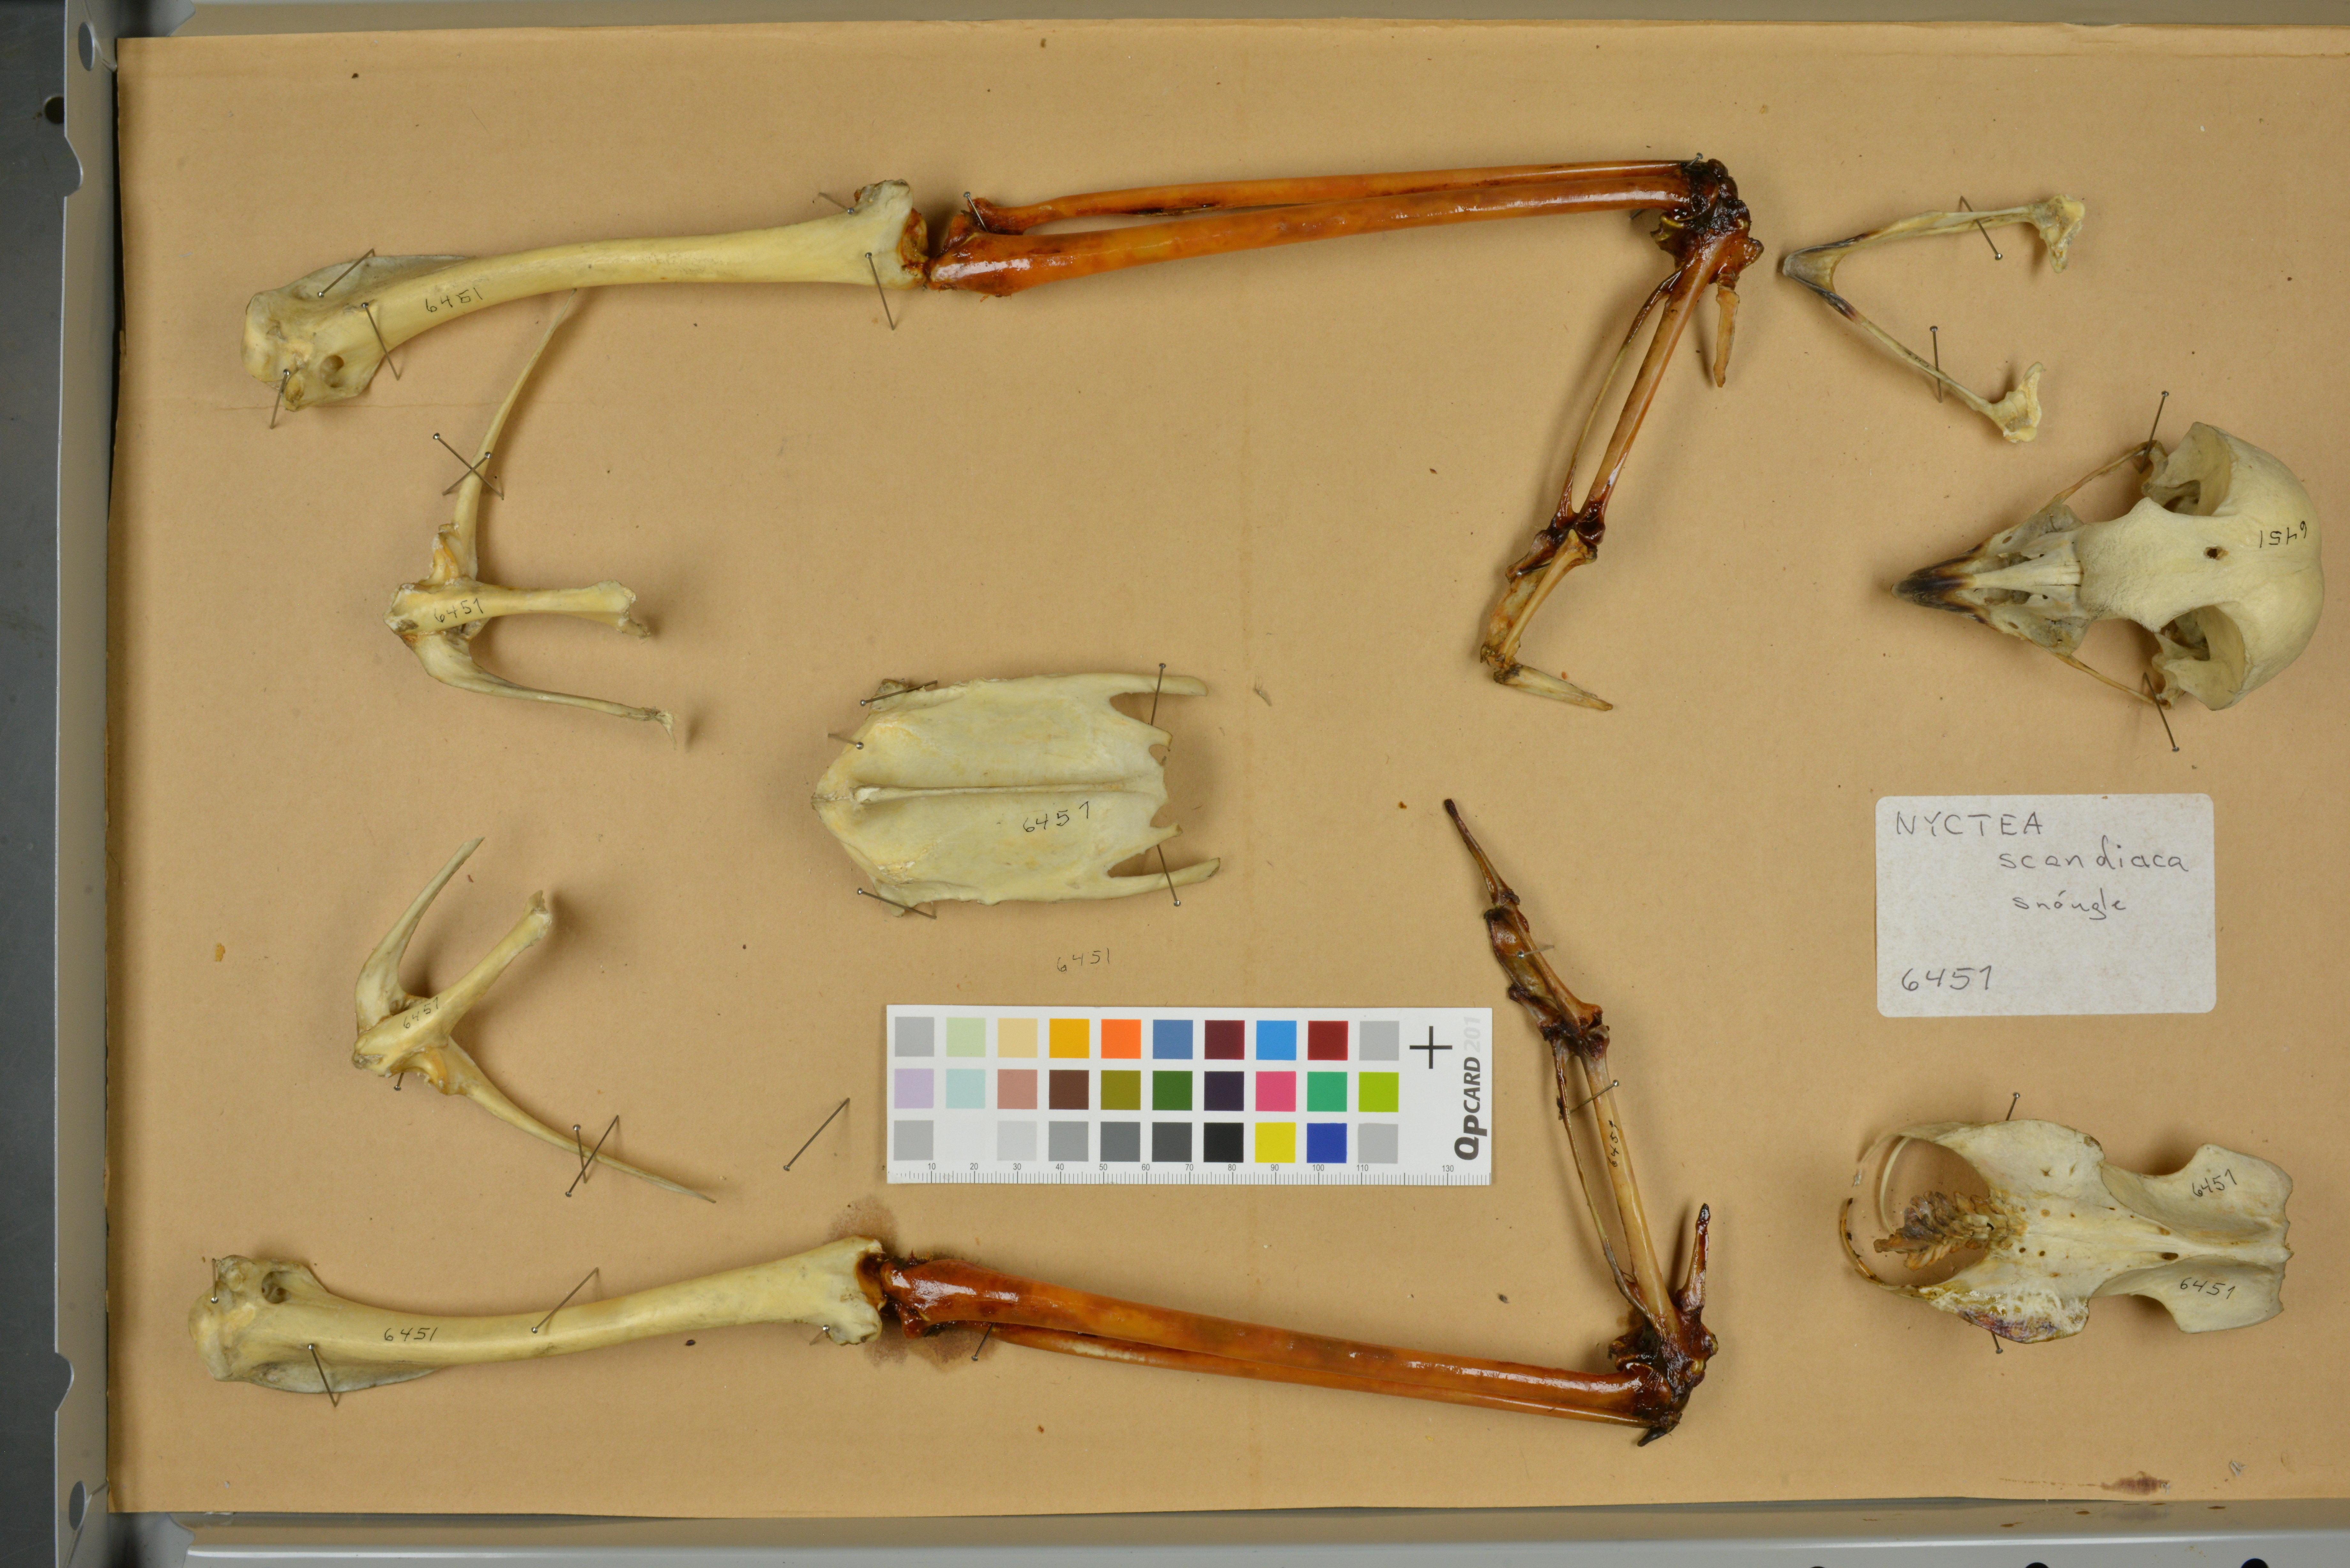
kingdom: Animalia
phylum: Chordata
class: Aves
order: Strigiformes
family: Strigidae
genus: Bubo
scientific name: Bubo scandiacus
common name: Snowy owl
